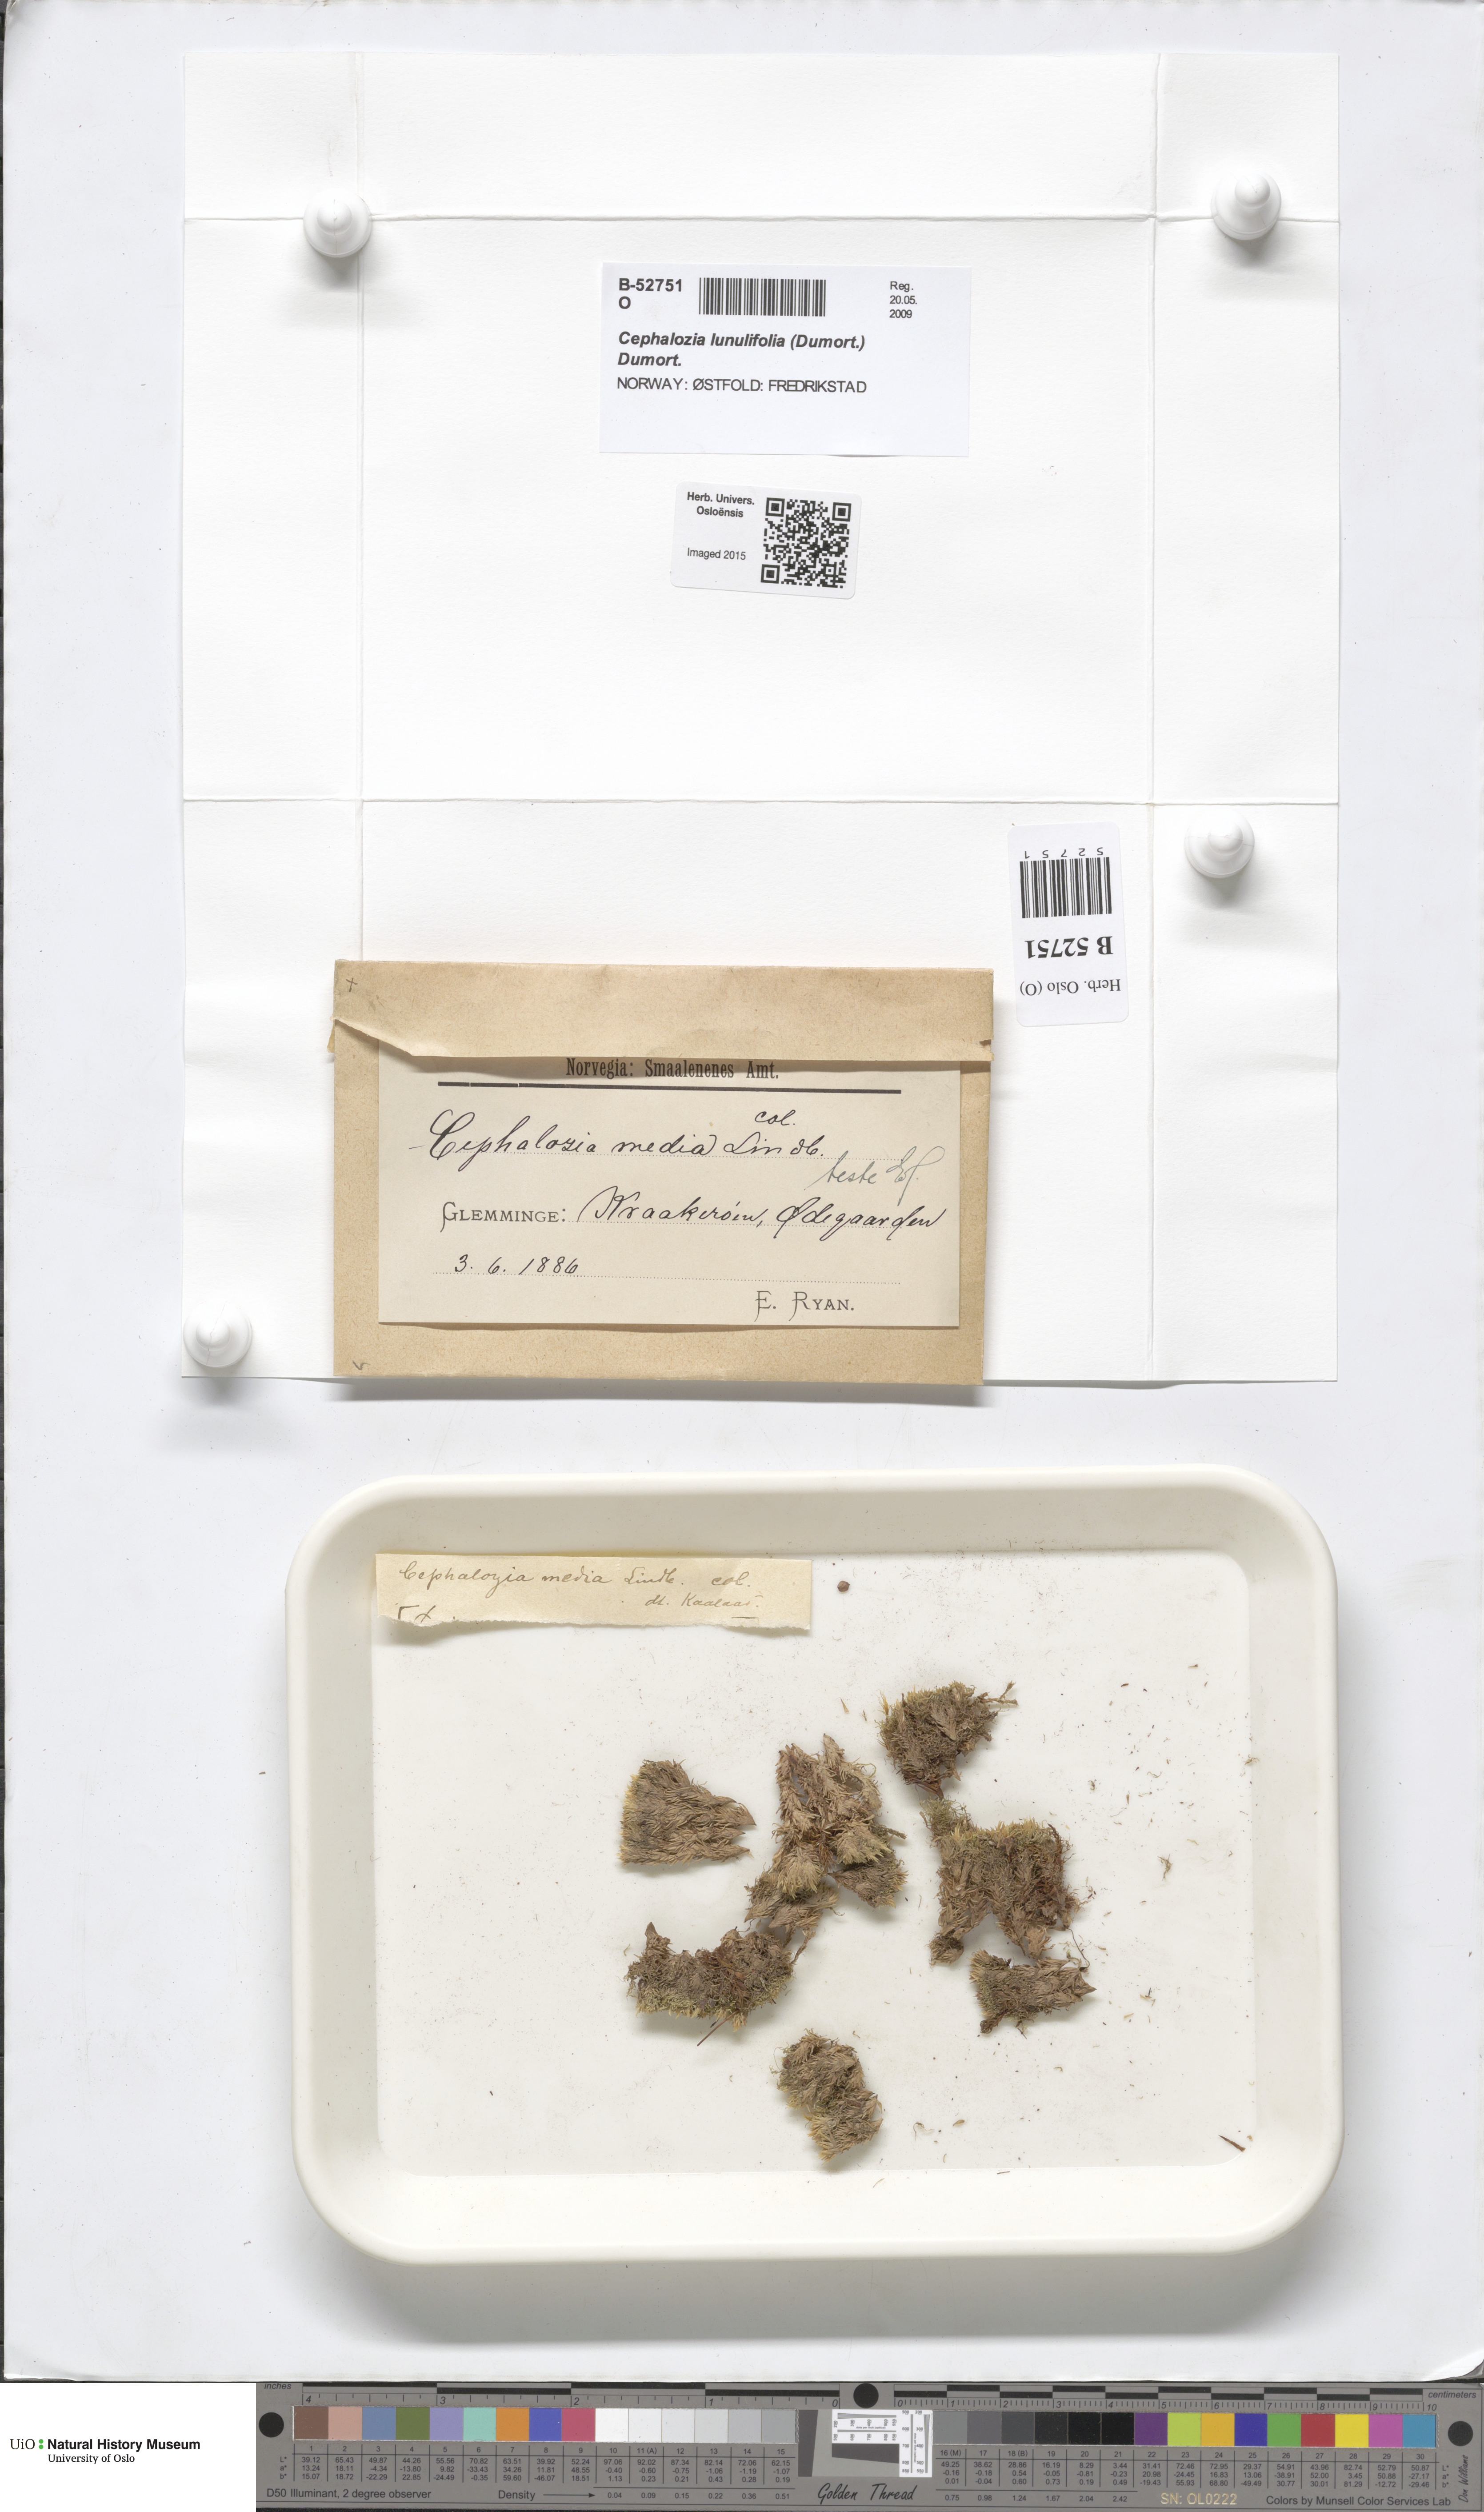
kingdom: Plantae
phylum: Marchantiophyta
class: Jungermanniopsida
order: Jungermanniales
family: Cephaloziaceae
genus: Fuscocephaloziopsis
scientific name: Fuscocephaloziopsis lunulifolia
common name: Moon-leaved pincerwort
